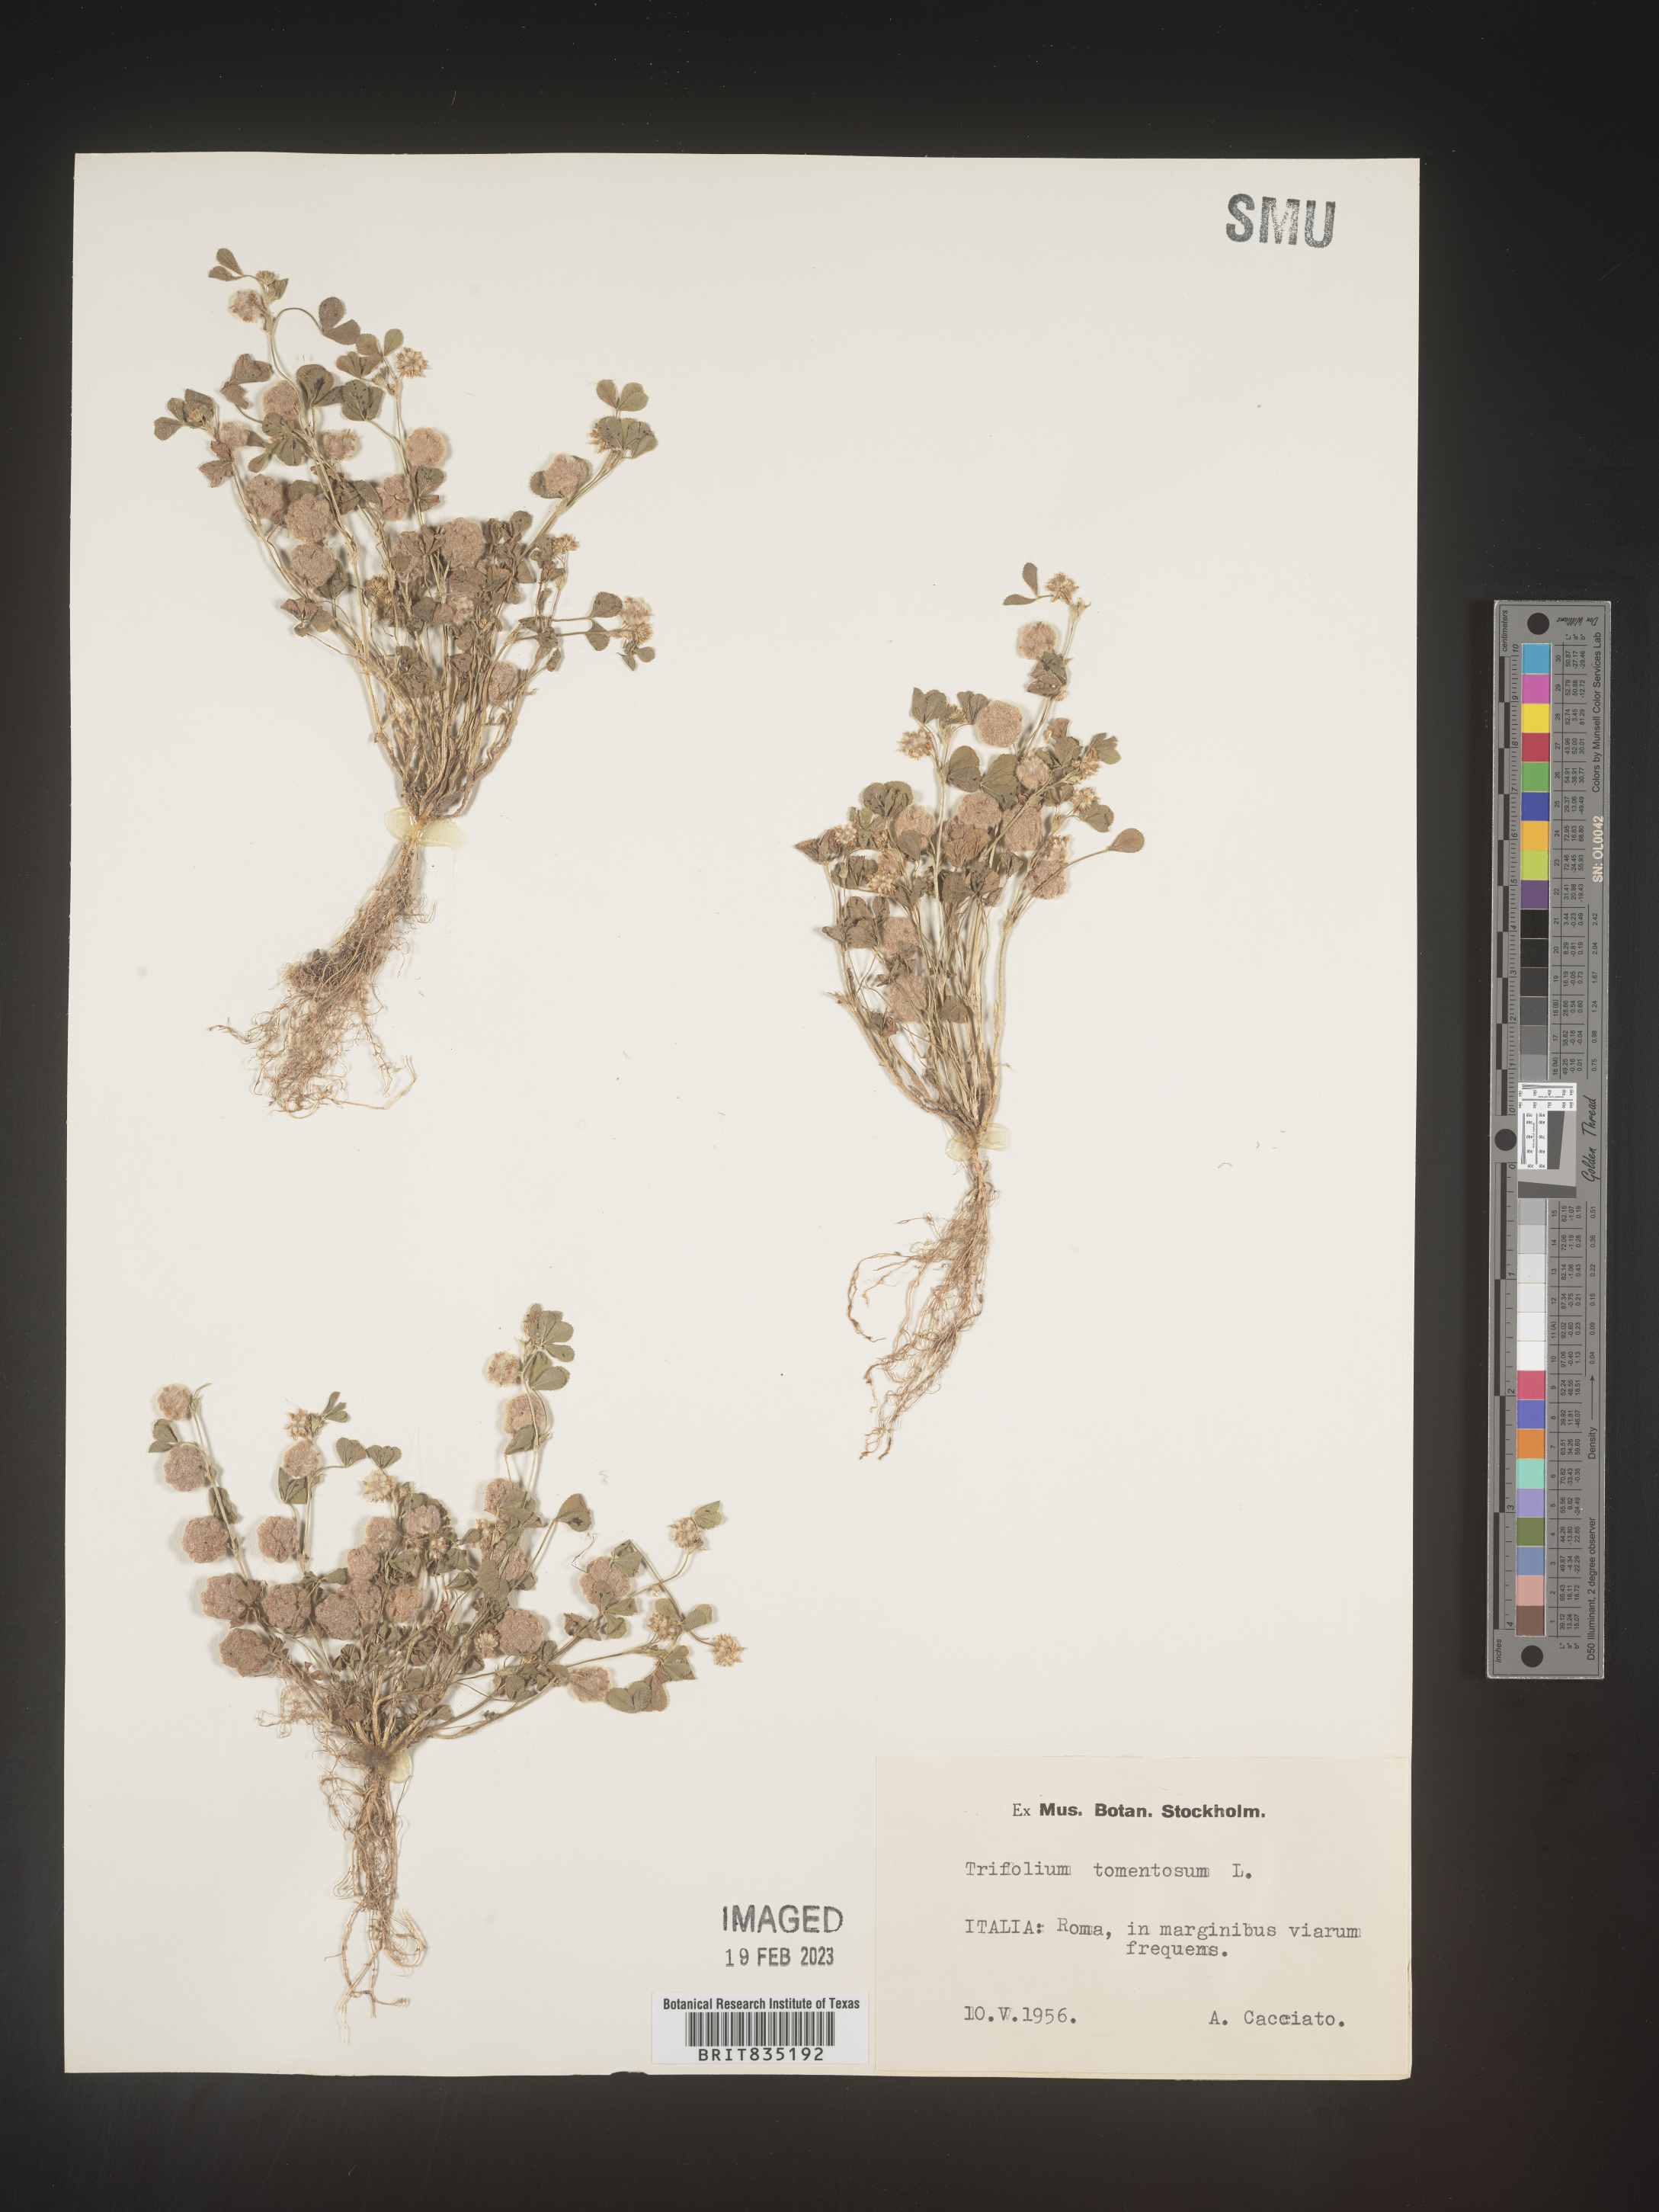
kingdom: Plantae
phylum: Tracheophyta
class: Magnoliopsida
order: Fabales
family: Fabaceae
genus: Trifolium
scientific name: Trifolium
